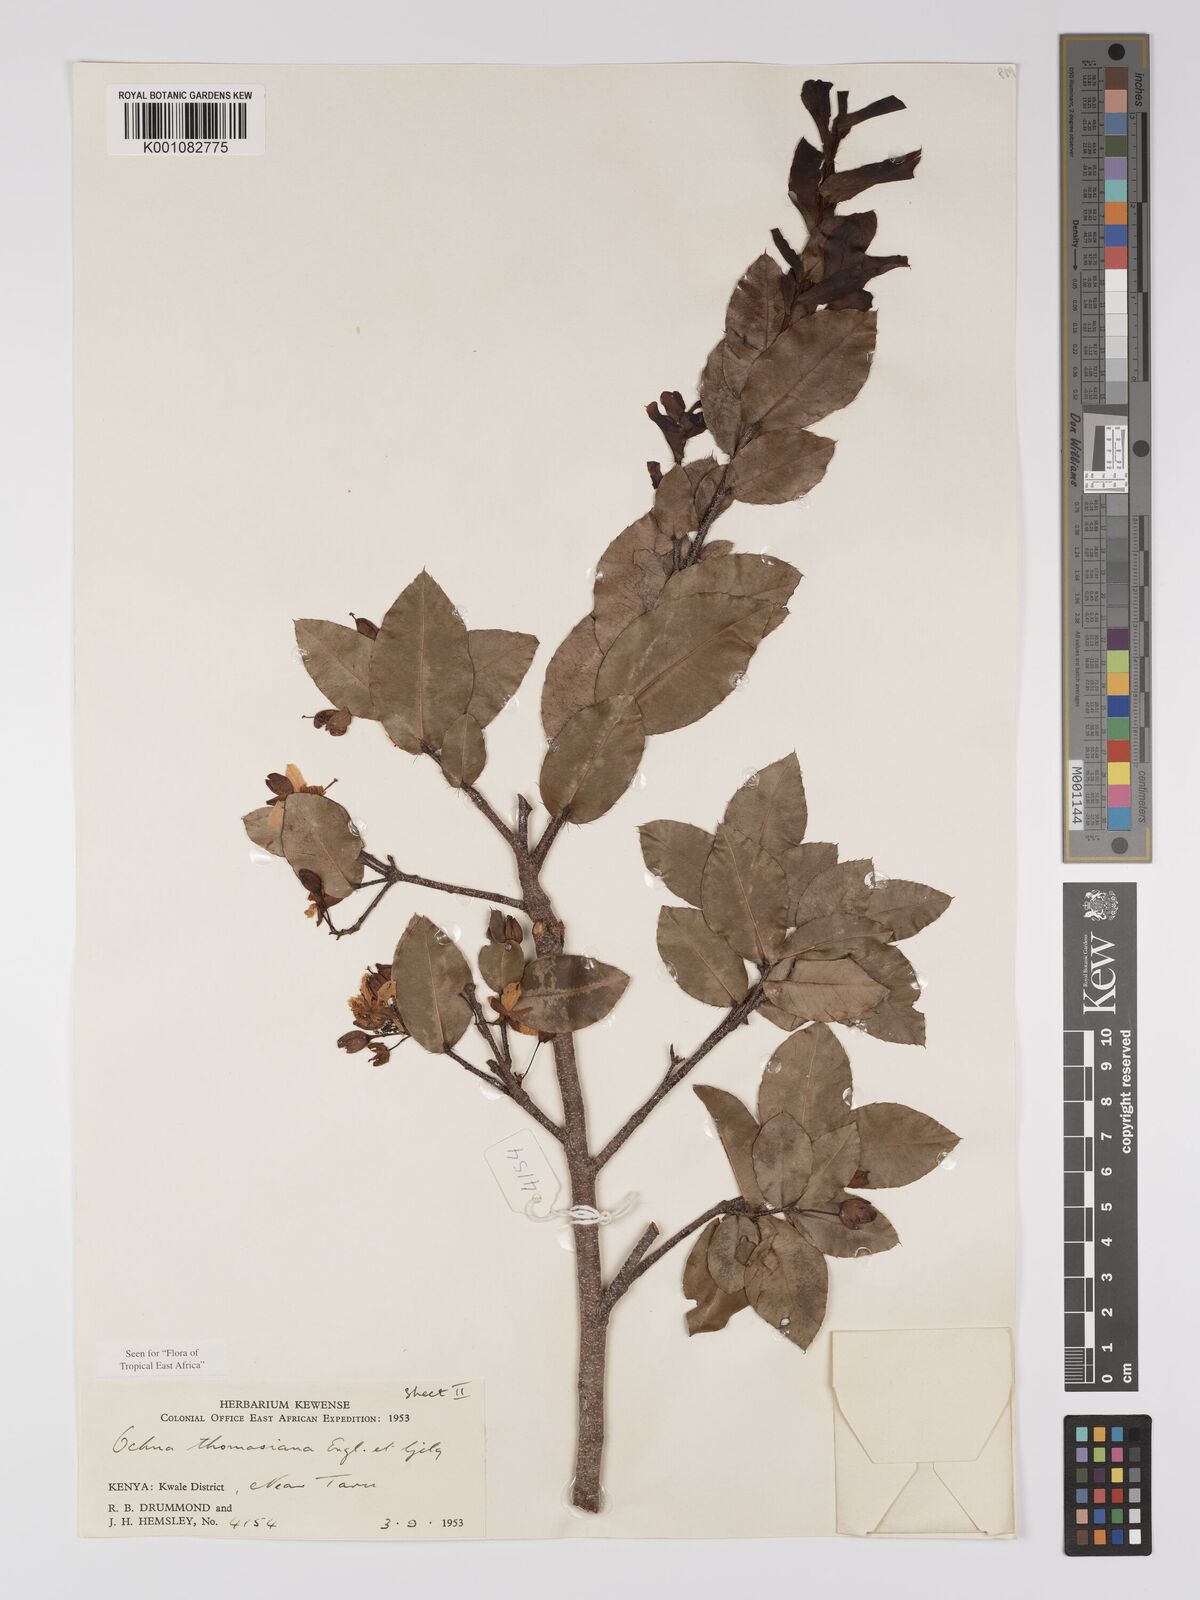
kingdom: Plantae
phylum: Tracheophyta
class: Magnoliopsida
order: Malpighiales
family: Ochnaceae
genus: Ochna
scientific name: Ochna thomasiana
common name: Thomas' bird's-eye bush
